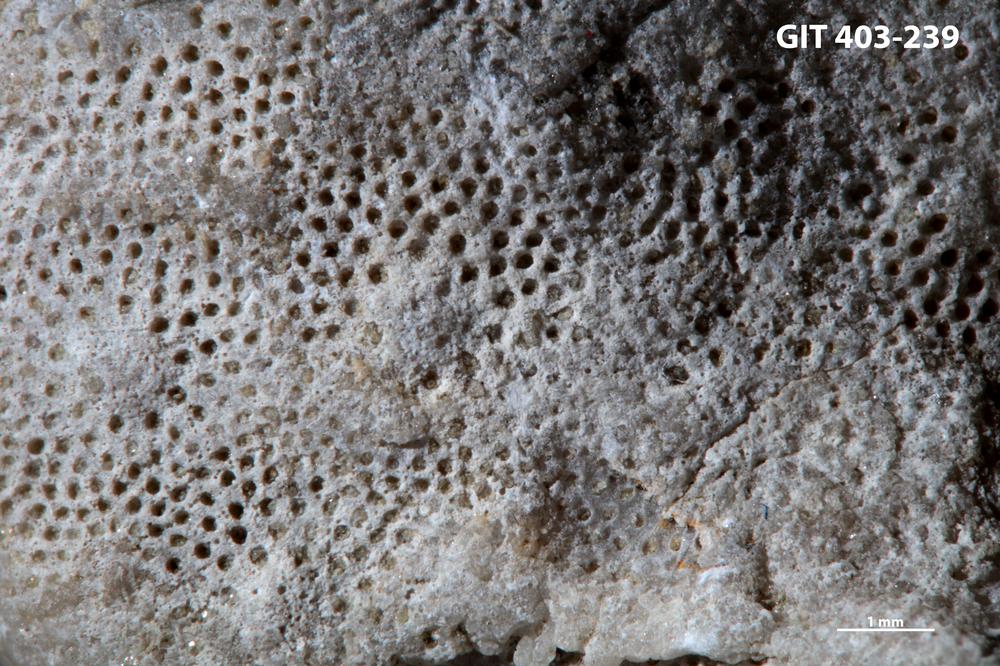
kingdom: Animalia
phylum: Bryozoa
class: Stenolaemata
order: Cystoporida
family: Fistuliporidae
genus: Fistulipora
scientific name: Fistulipora przhidolensis
